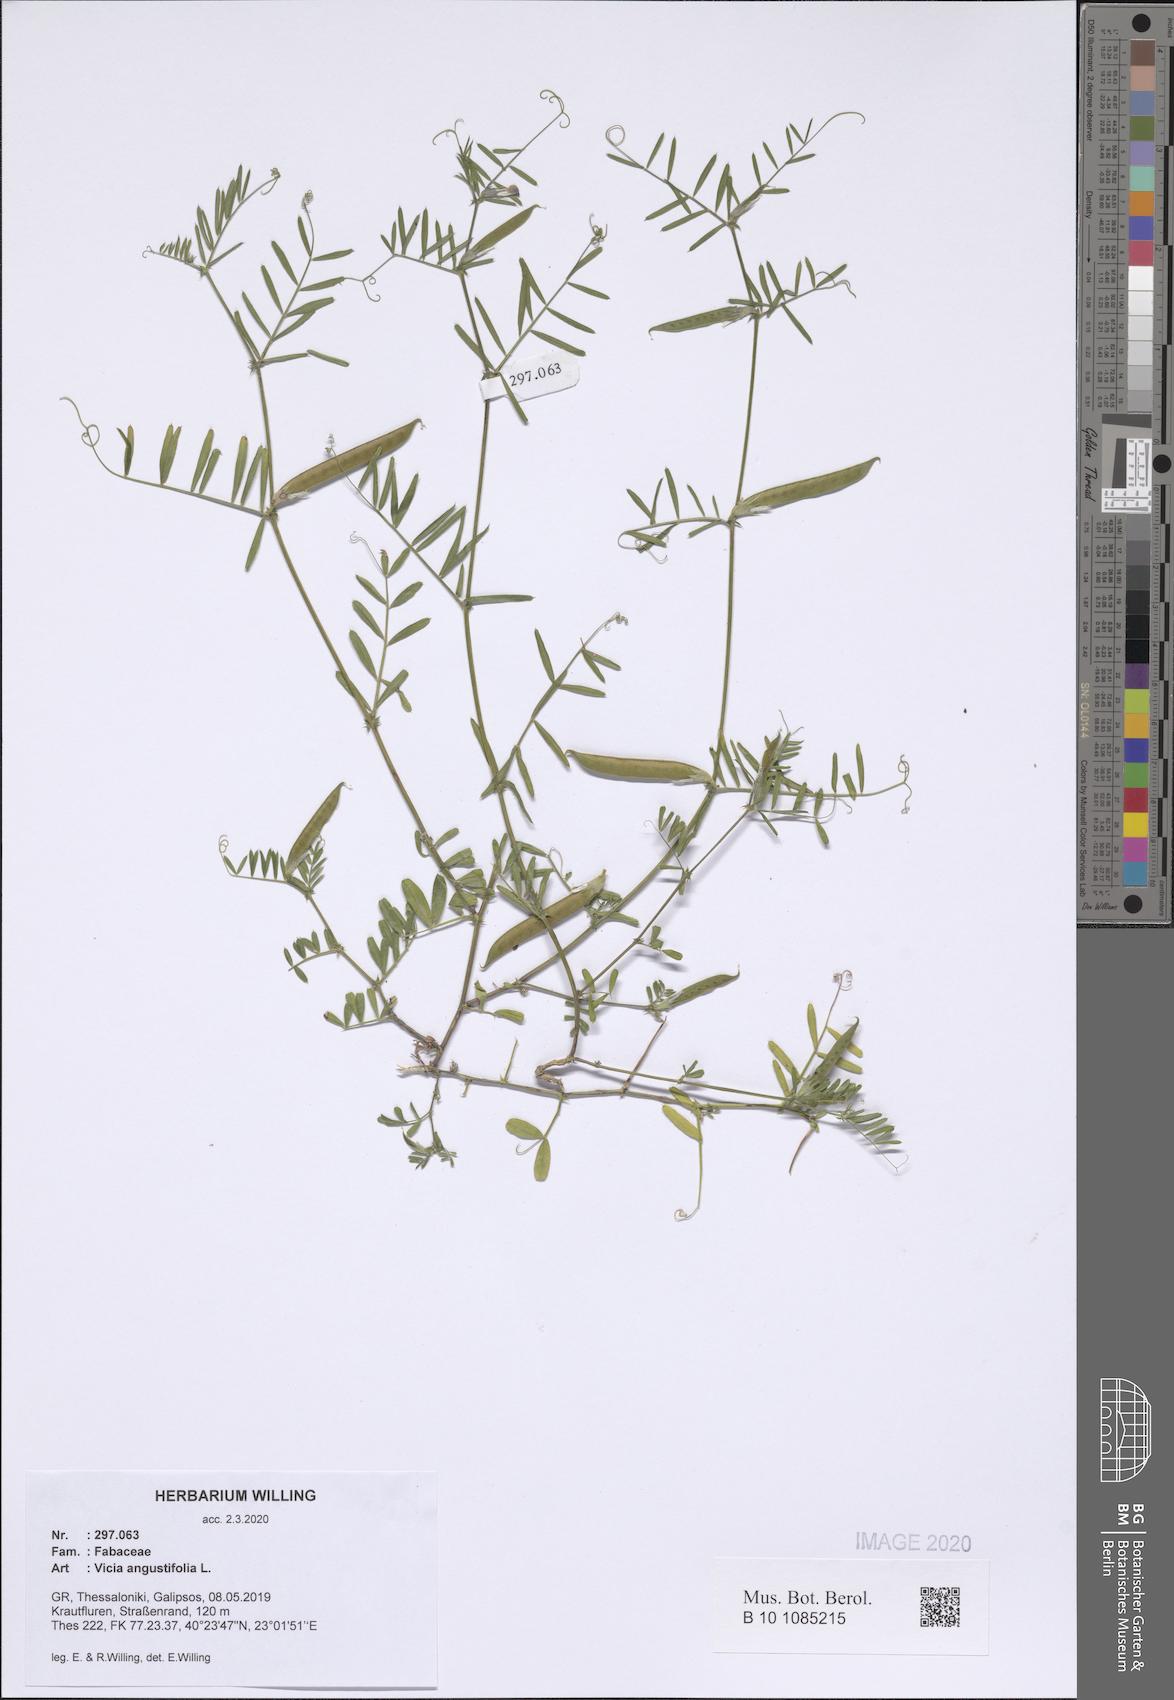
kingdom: Plantae
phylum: Tracheophyta
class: Magnoliopsida
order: Fabales
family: Fabaceae
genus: Vicia
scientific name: Vicia sativa
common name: Garden vetch
